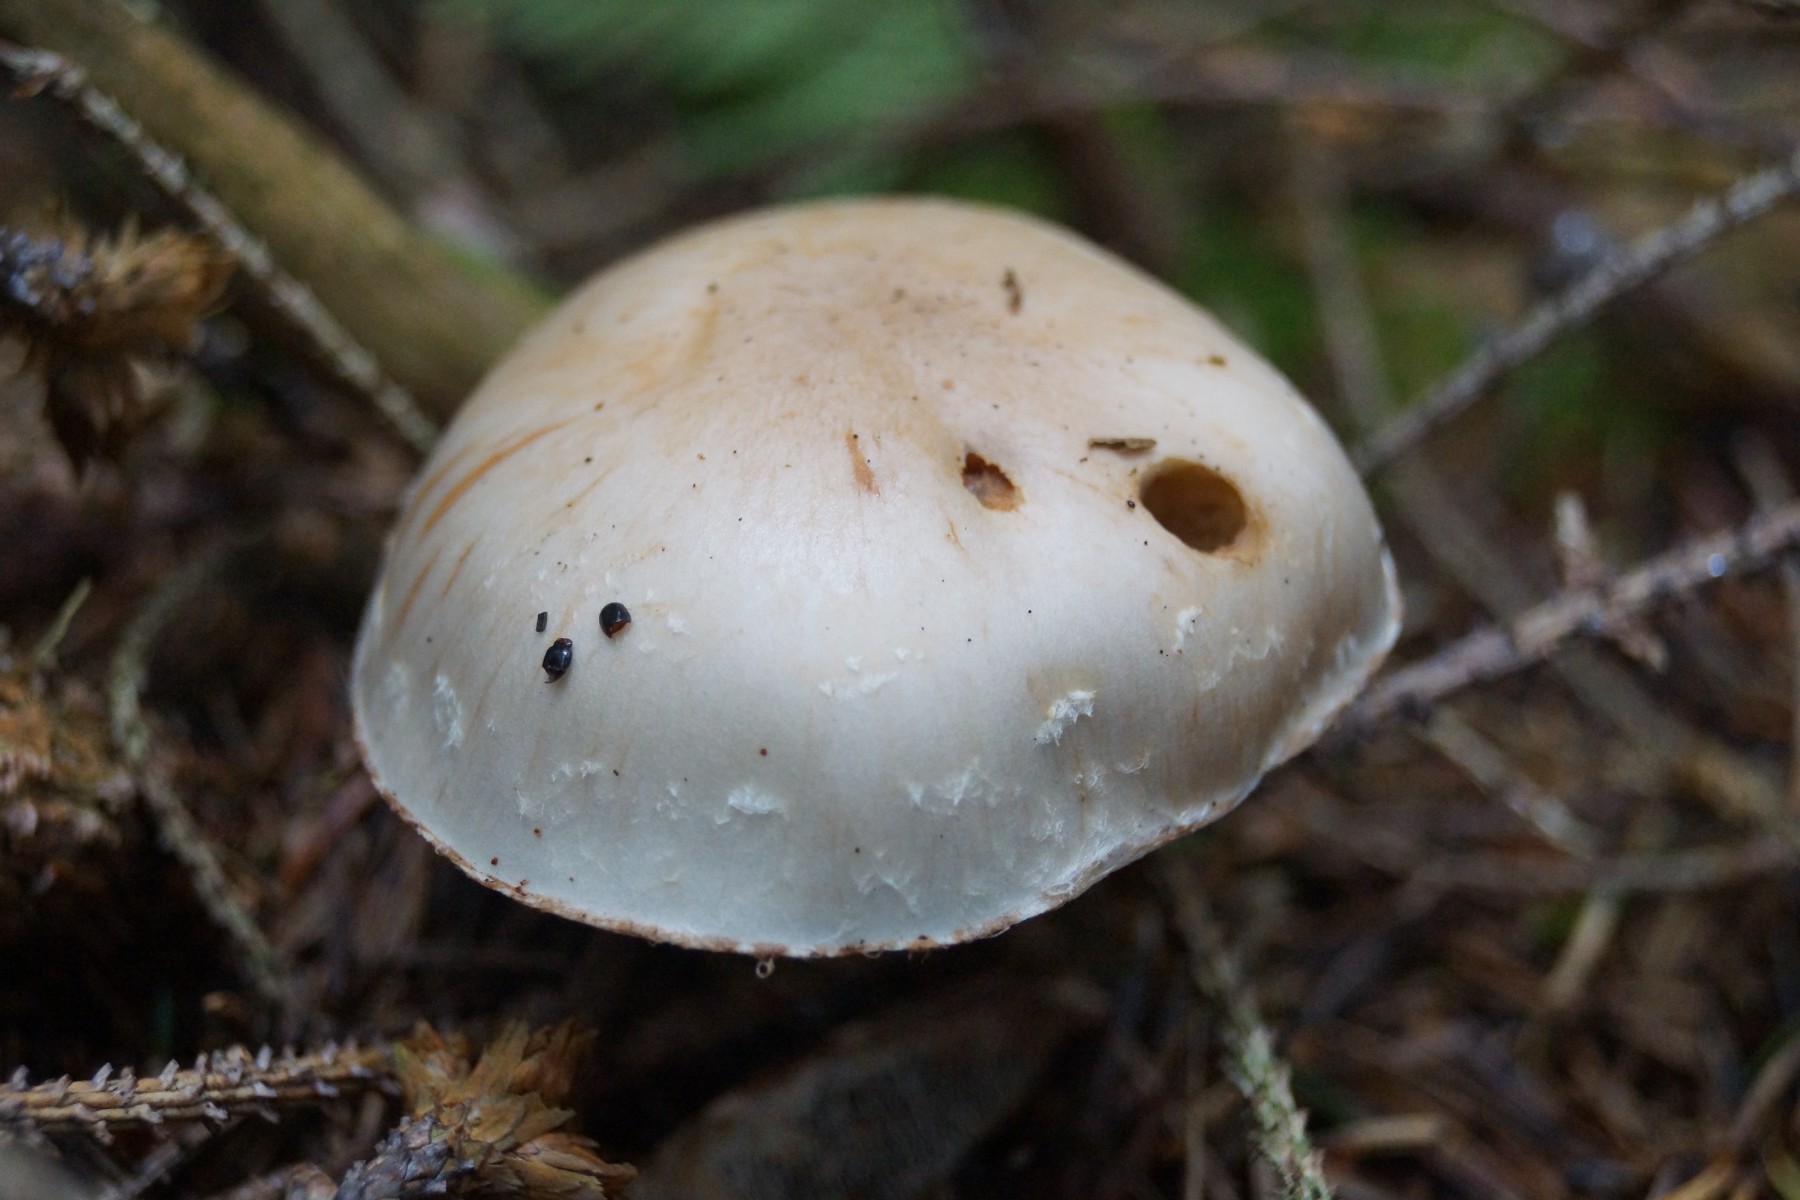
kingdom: Fungi
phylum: Basidiomycota
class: Agaricomycetes
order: Agaricales
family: Strophariaceae
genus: Pholiota
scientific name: Pholiota lenta
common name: løv-skælhat
